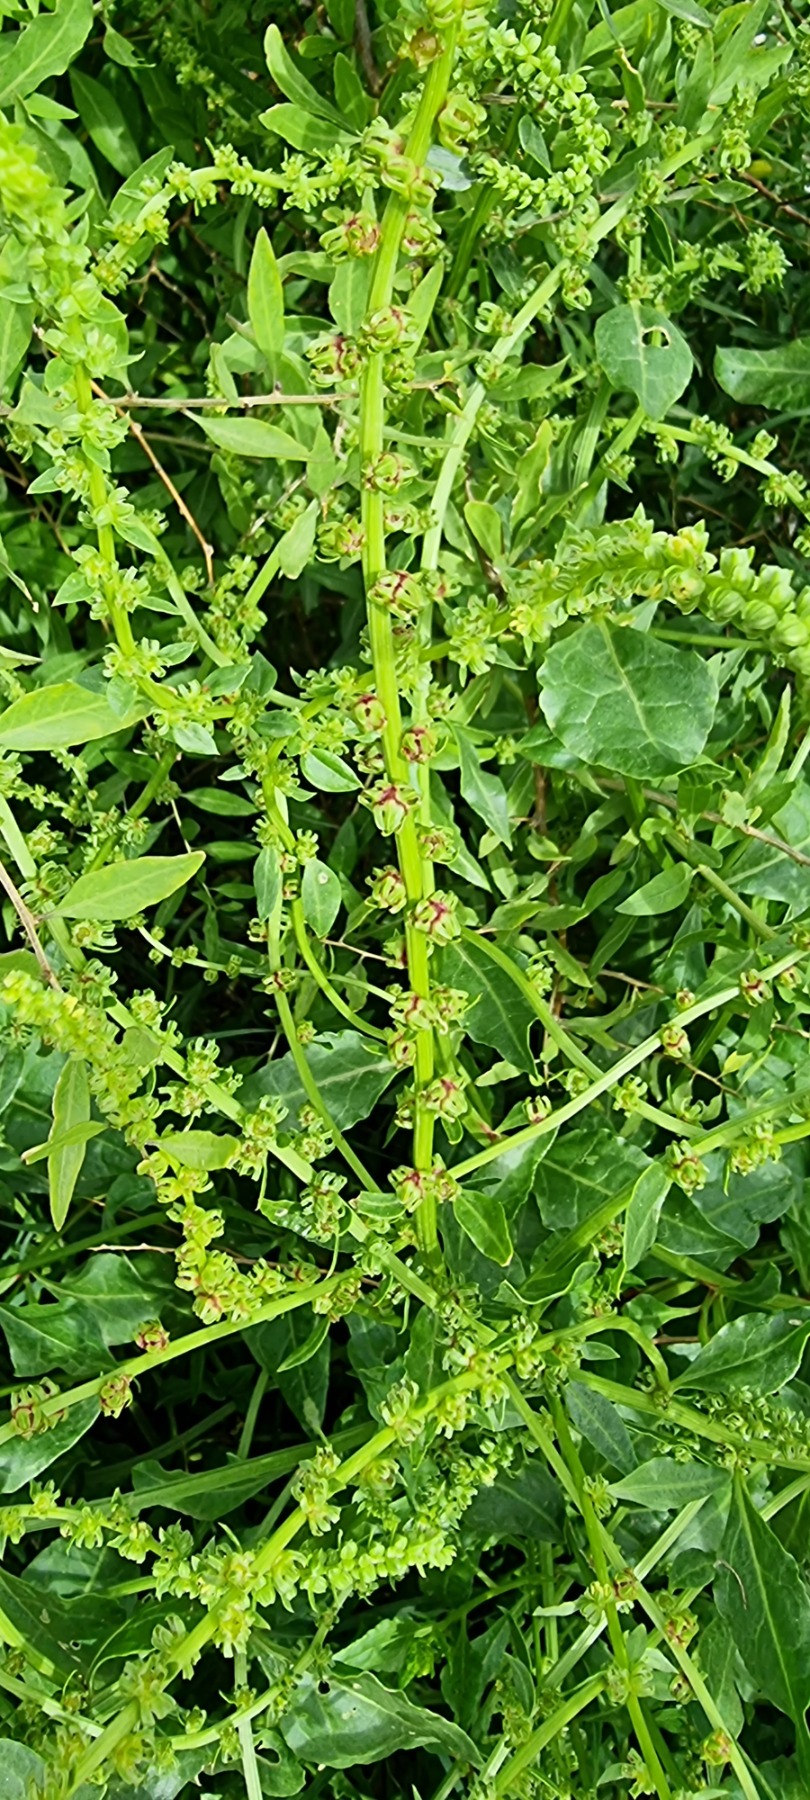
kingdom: Plantae
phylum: Tracheophyta
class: Magnoliopsida
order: Caryophyllales
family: Amaranthaceae
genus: Beta
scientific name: Beta maritima
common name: Strand-bede
